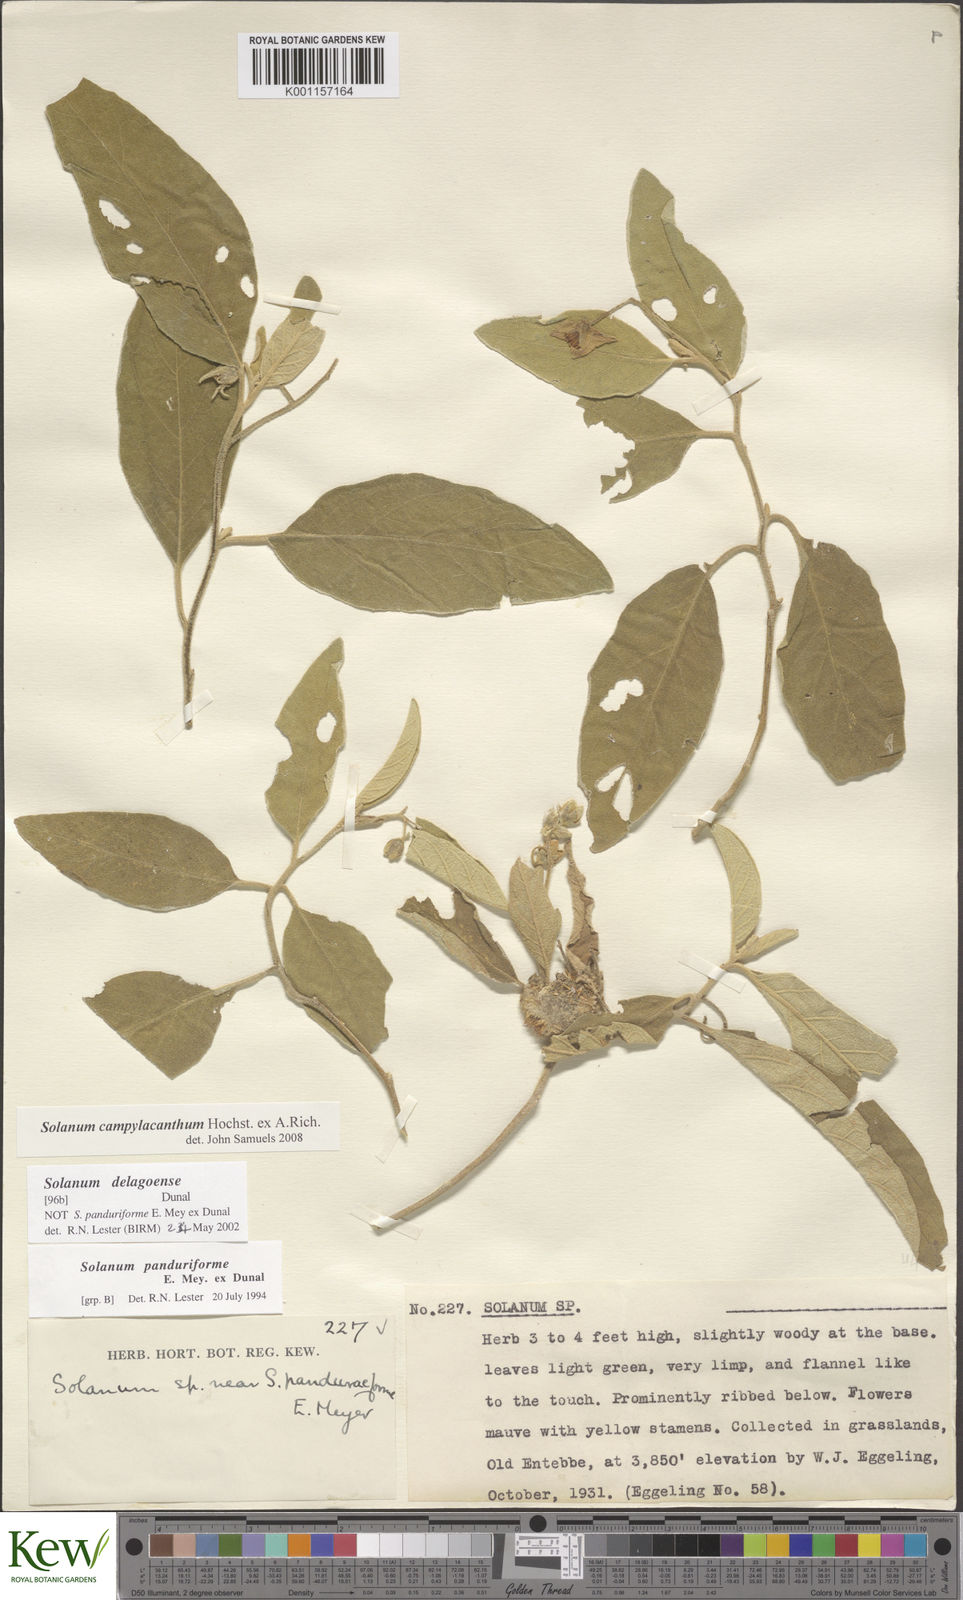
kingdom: Plantae
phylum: Tracheophyta
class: Magnoliopsida
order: Solanales
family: Solanaceae
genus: Solanum
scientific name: Solanum campylacanthum
